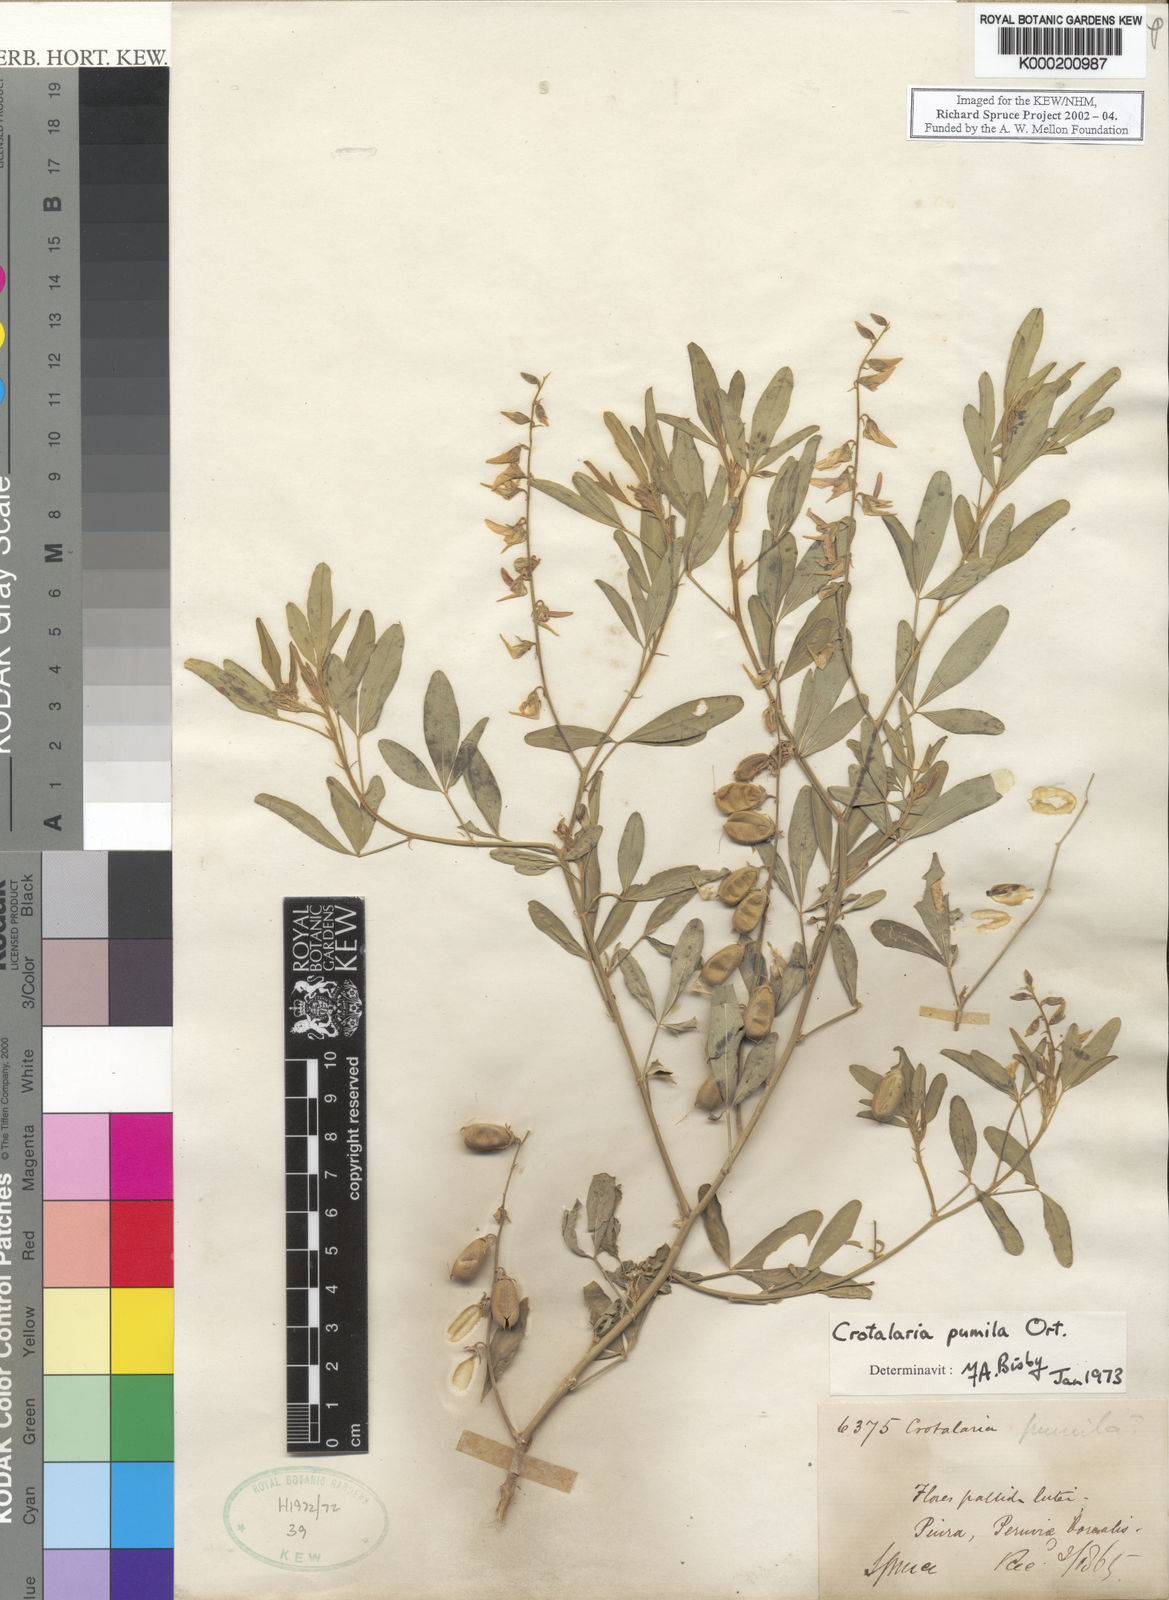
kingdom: Plantae
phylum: Tracheophyta
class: Magnoliopsida
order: Fabales
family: Fabaceae
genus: Crotalaria
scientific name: Crotalaria pumila
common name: Low rattlebox
